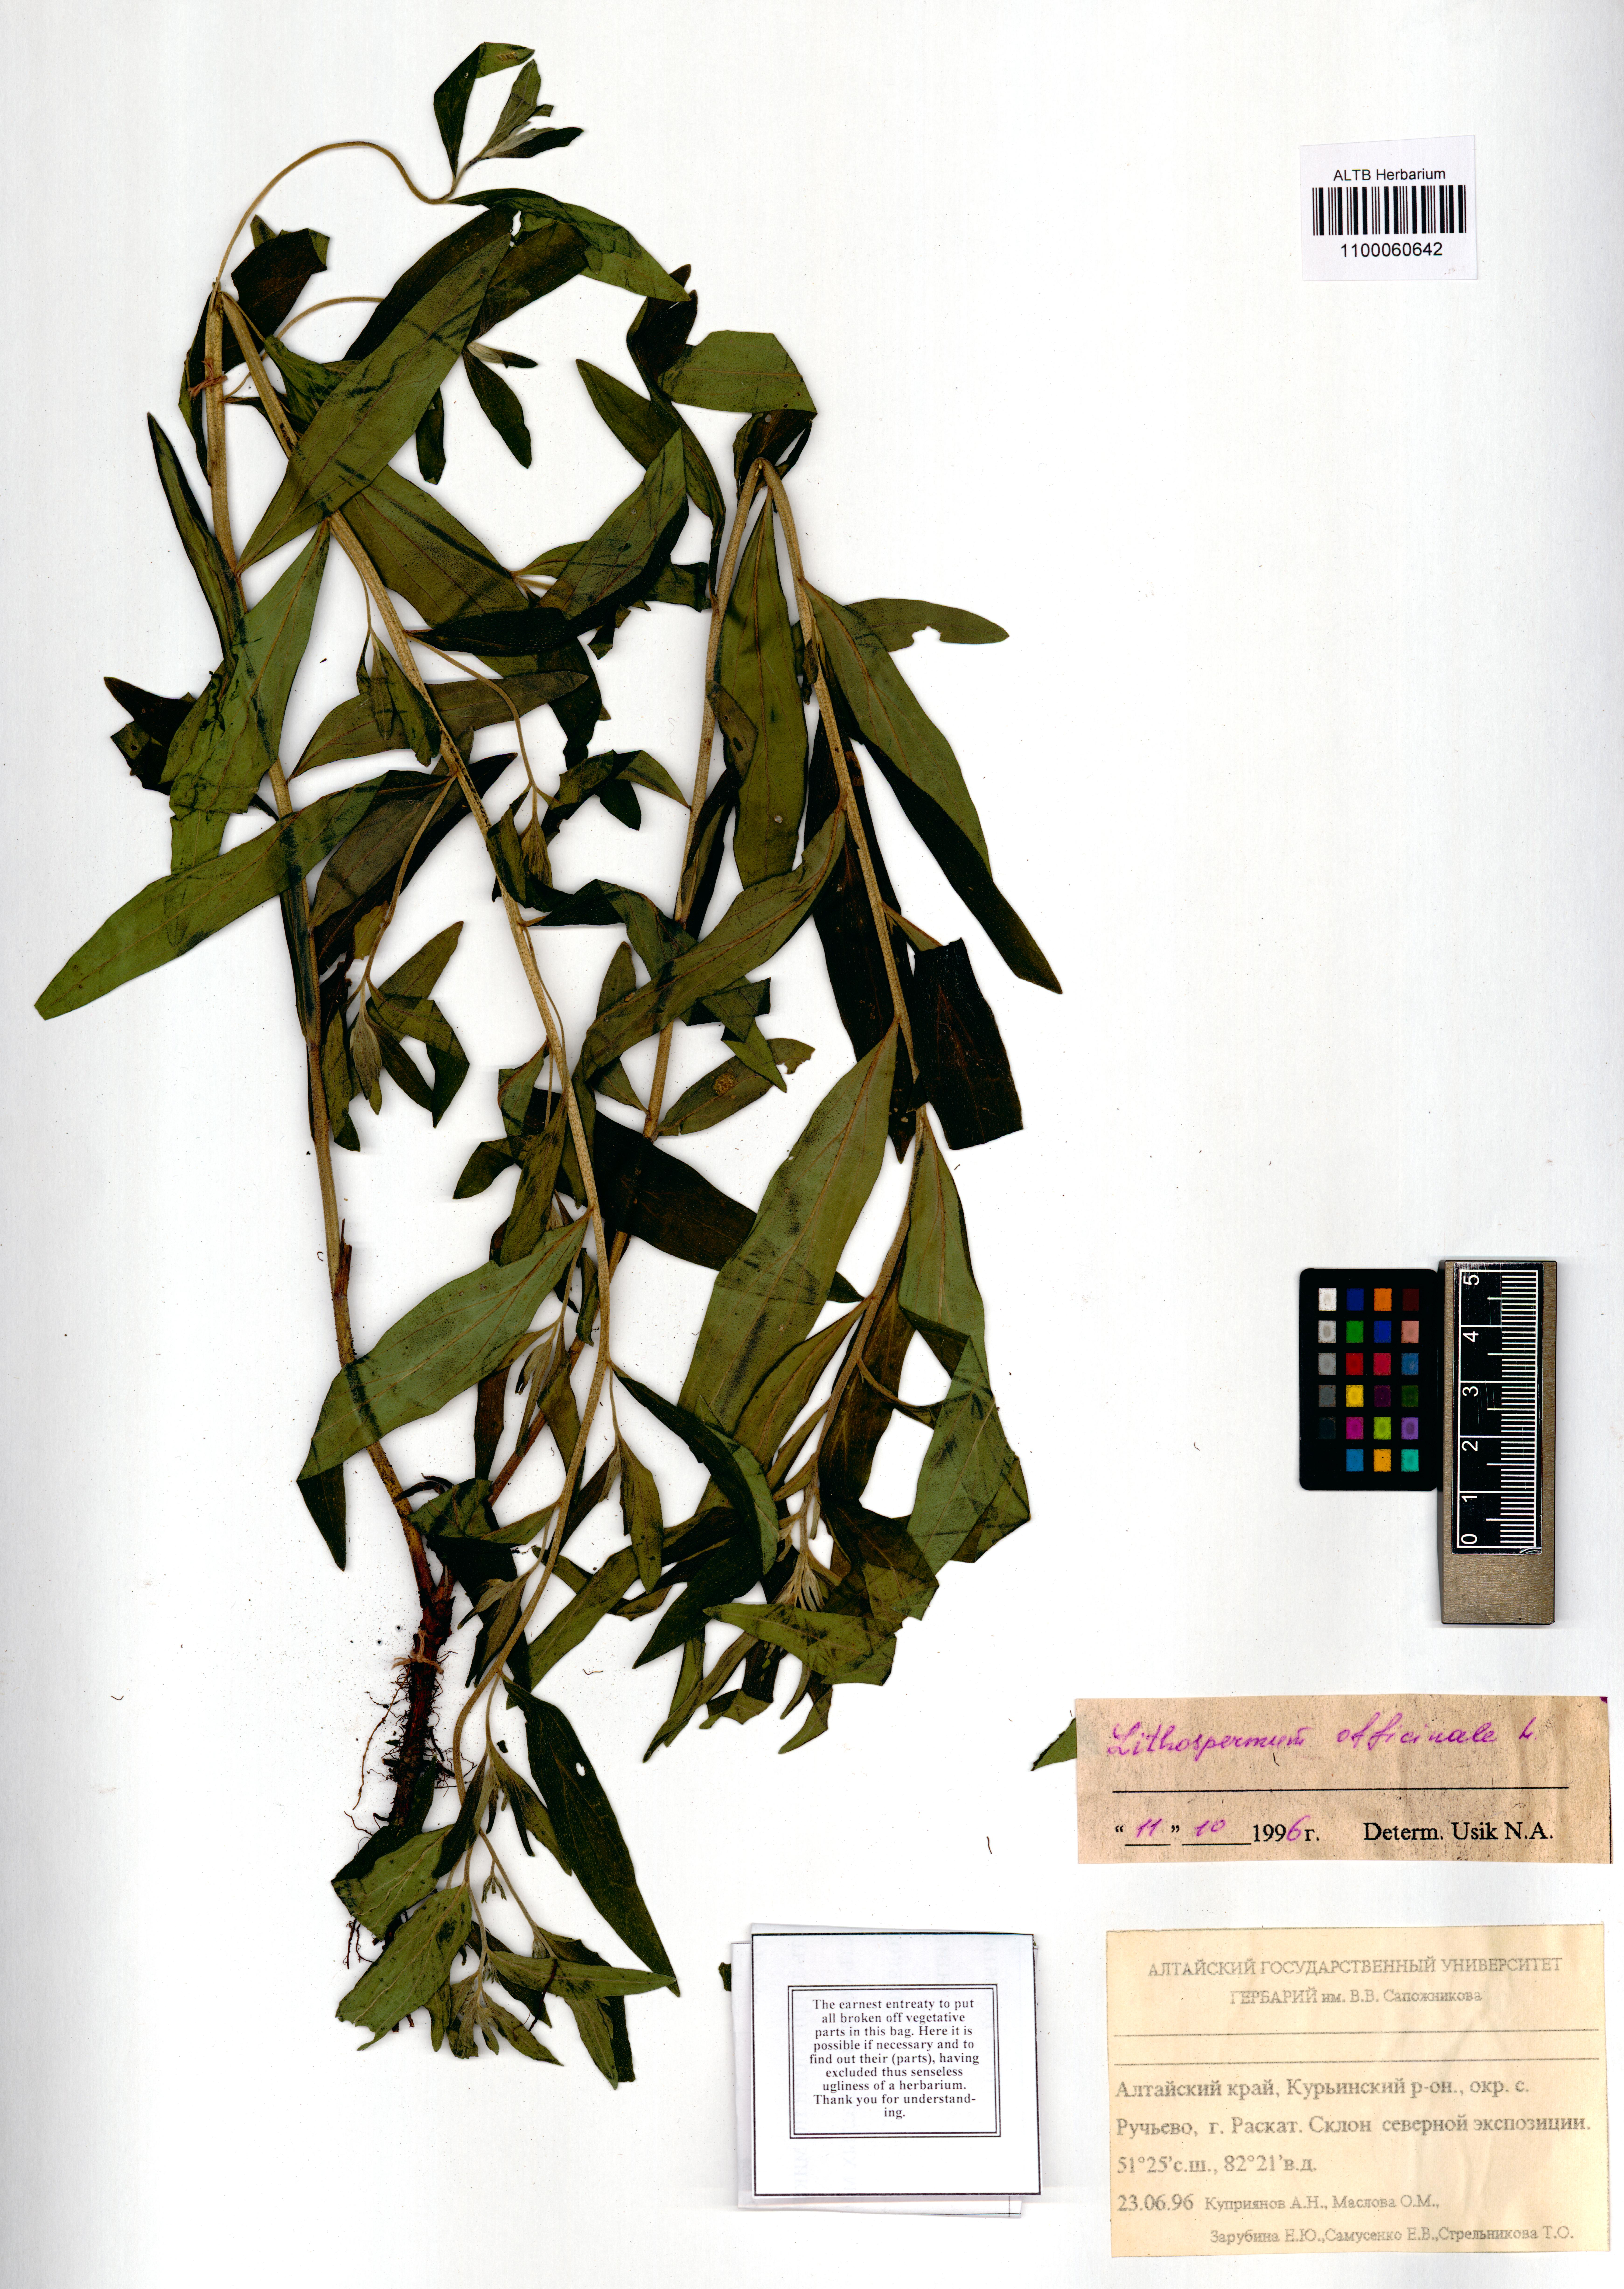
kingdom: Plantae
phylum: Tracheophyta
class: Magnoliopsida
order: Boraginales
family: Boraginaceae
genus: Lithospermum
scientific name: Lithospermum officinale
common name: Common gromwell
